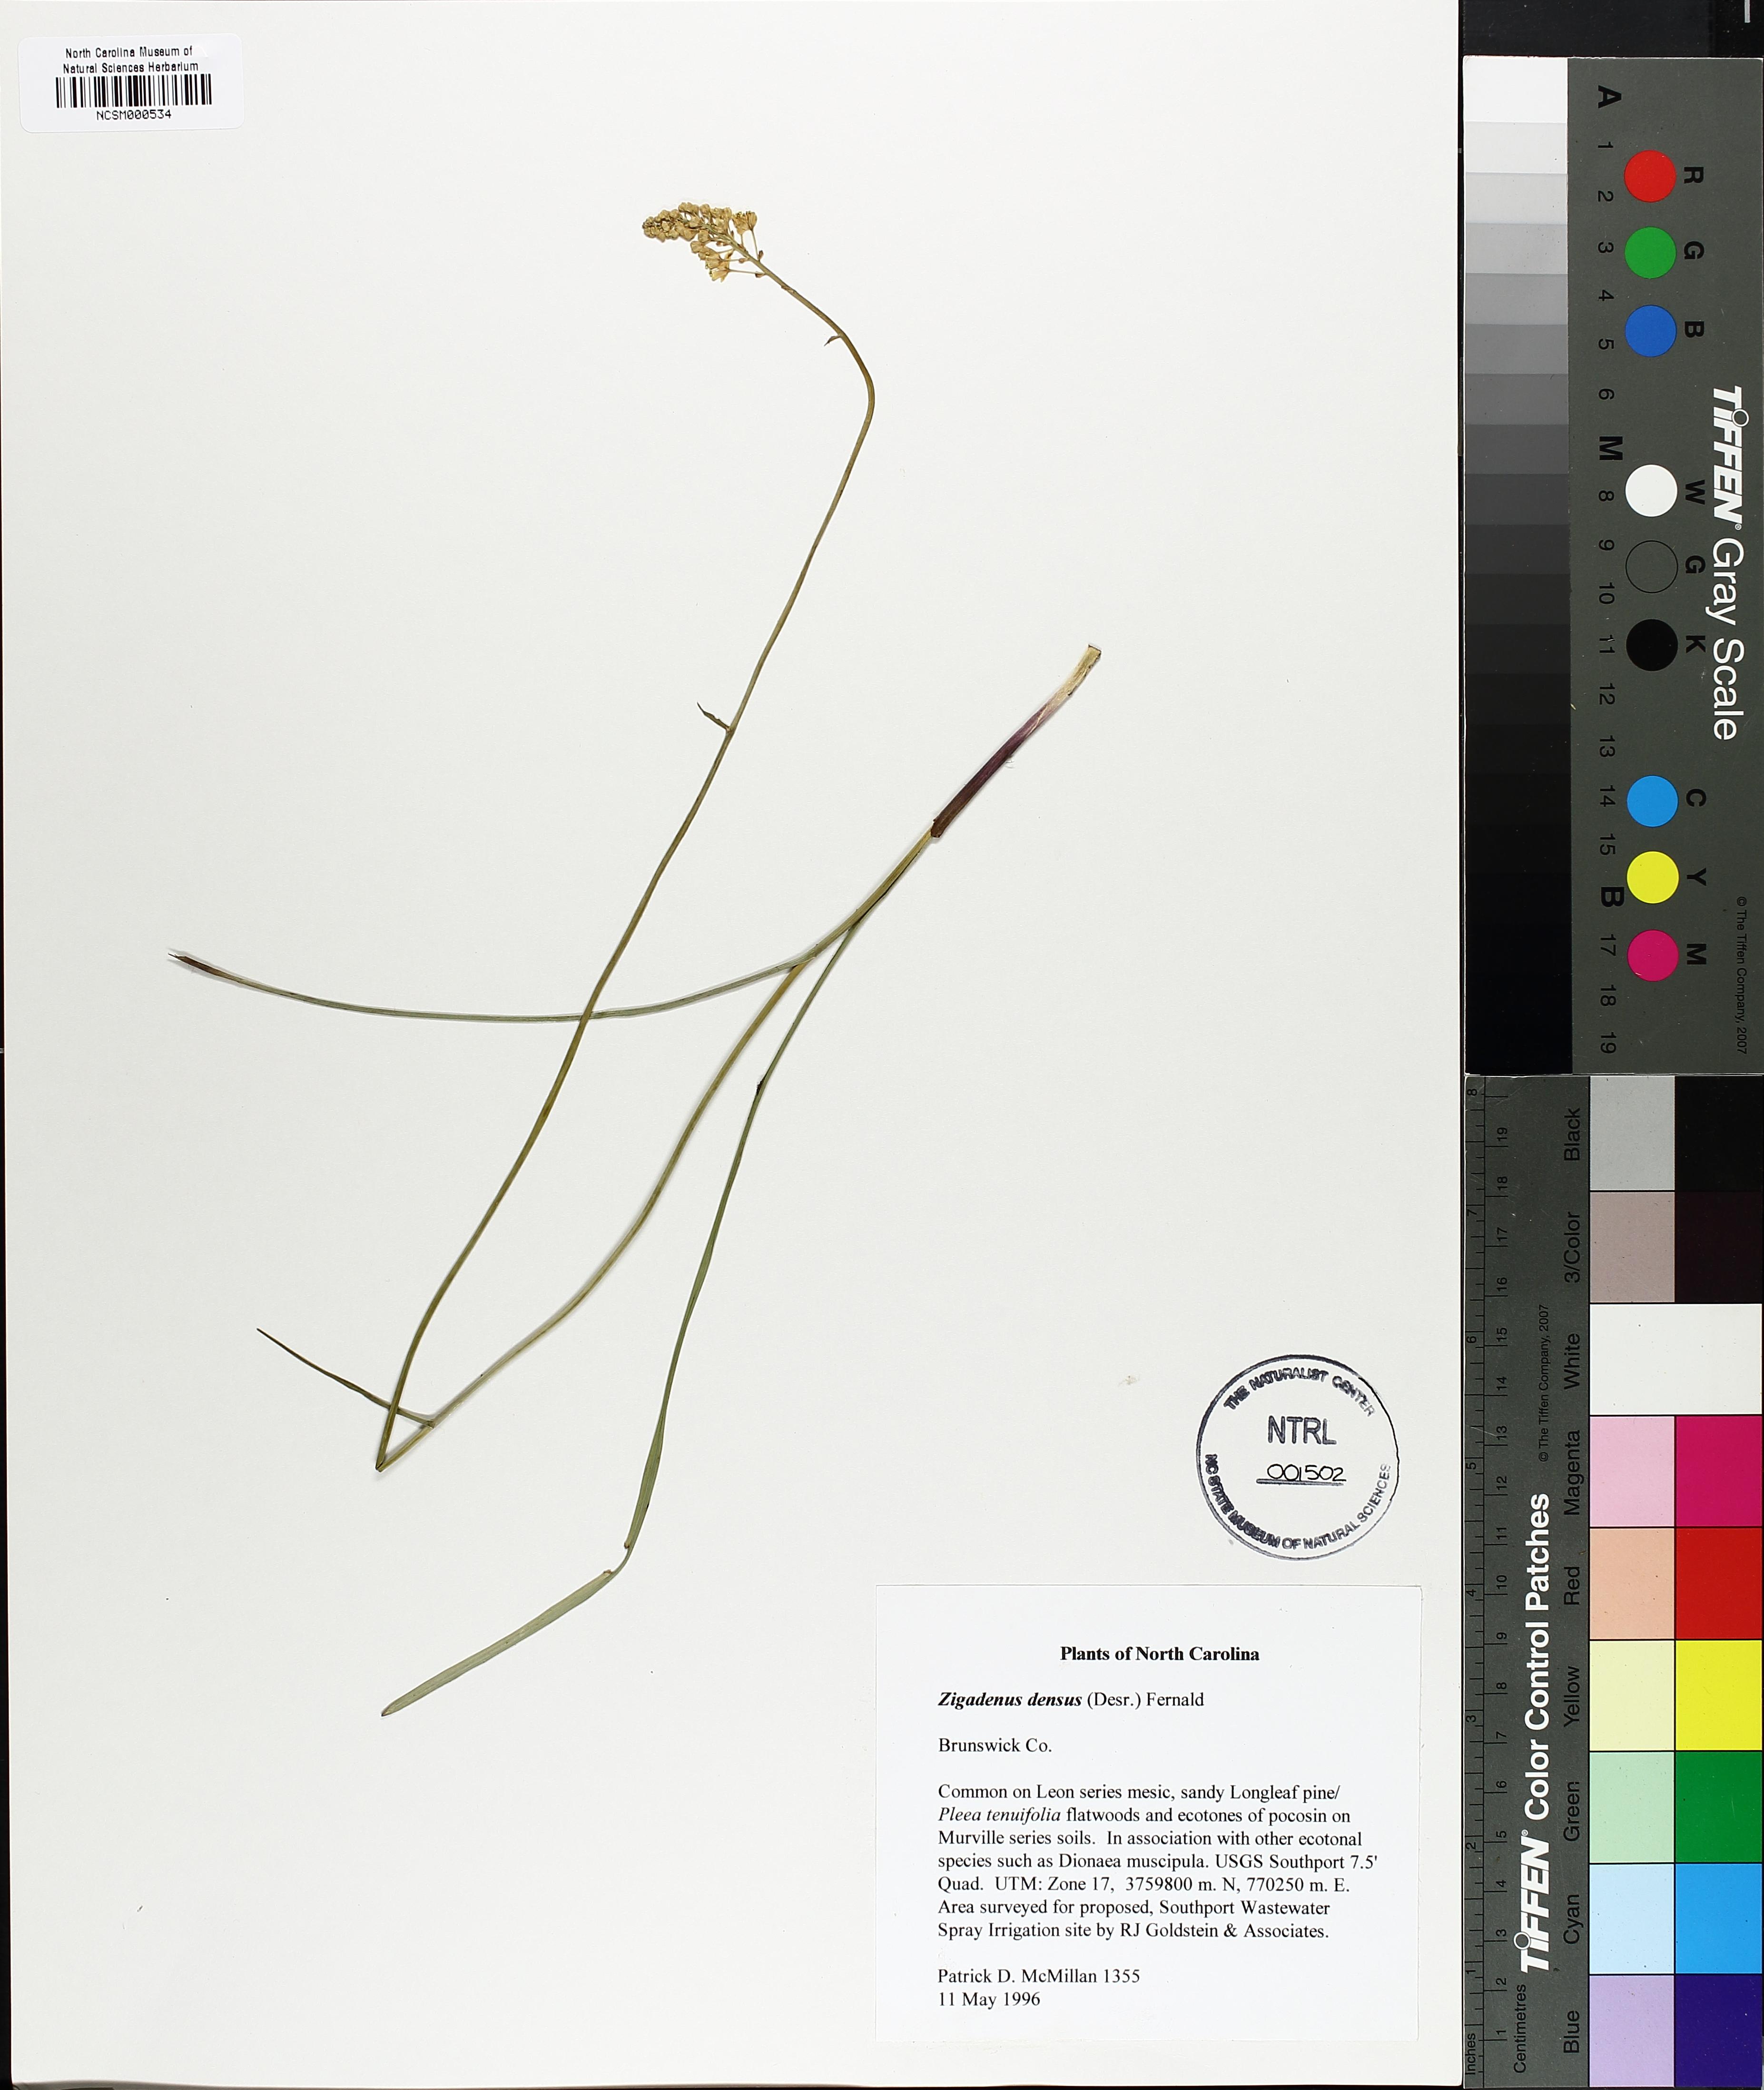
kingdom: Plantae
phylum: Tracheophyta
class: Liliopsida
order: Liliales
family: Melanthiaceae
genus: Stenanthium
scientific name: Stenanthium densum
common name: Crow-poison
